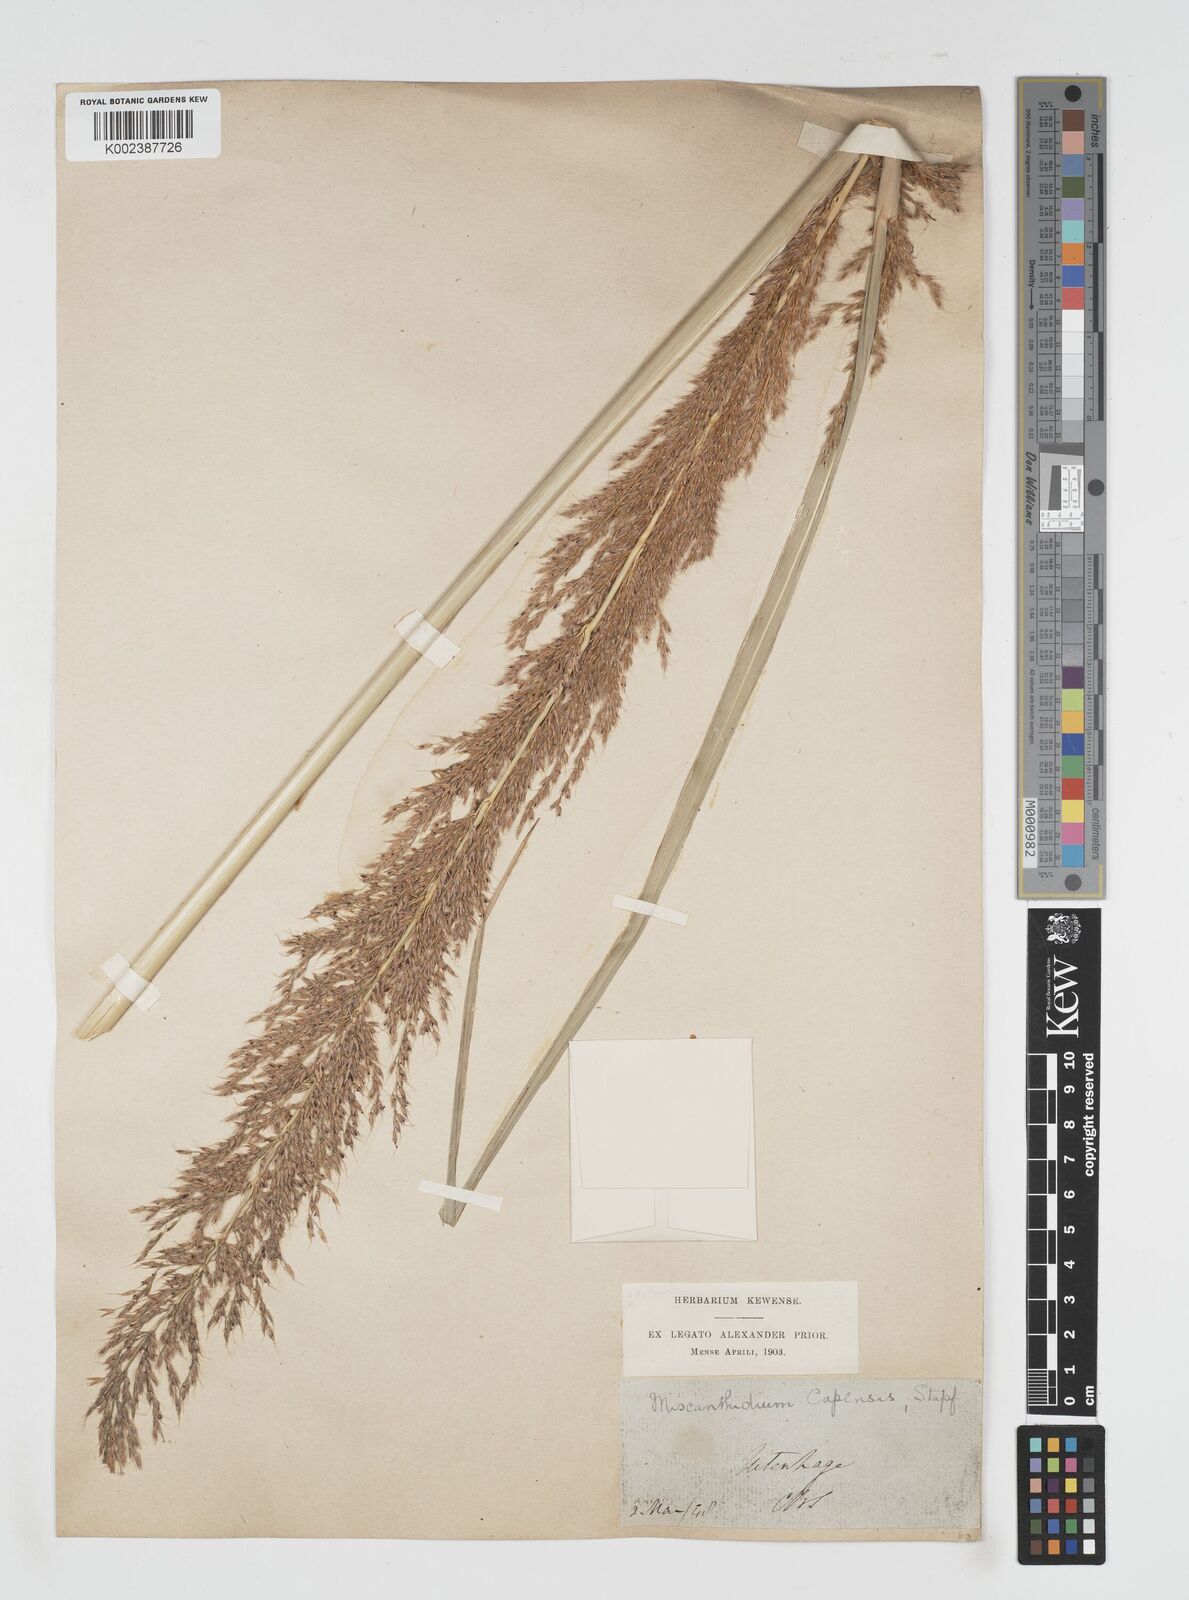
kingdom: Plantae
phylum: Tracheophyta
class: Liliopsida
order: Poales
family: Poaceae
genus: Miscanthus
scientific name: Miscanthus ecklonii
